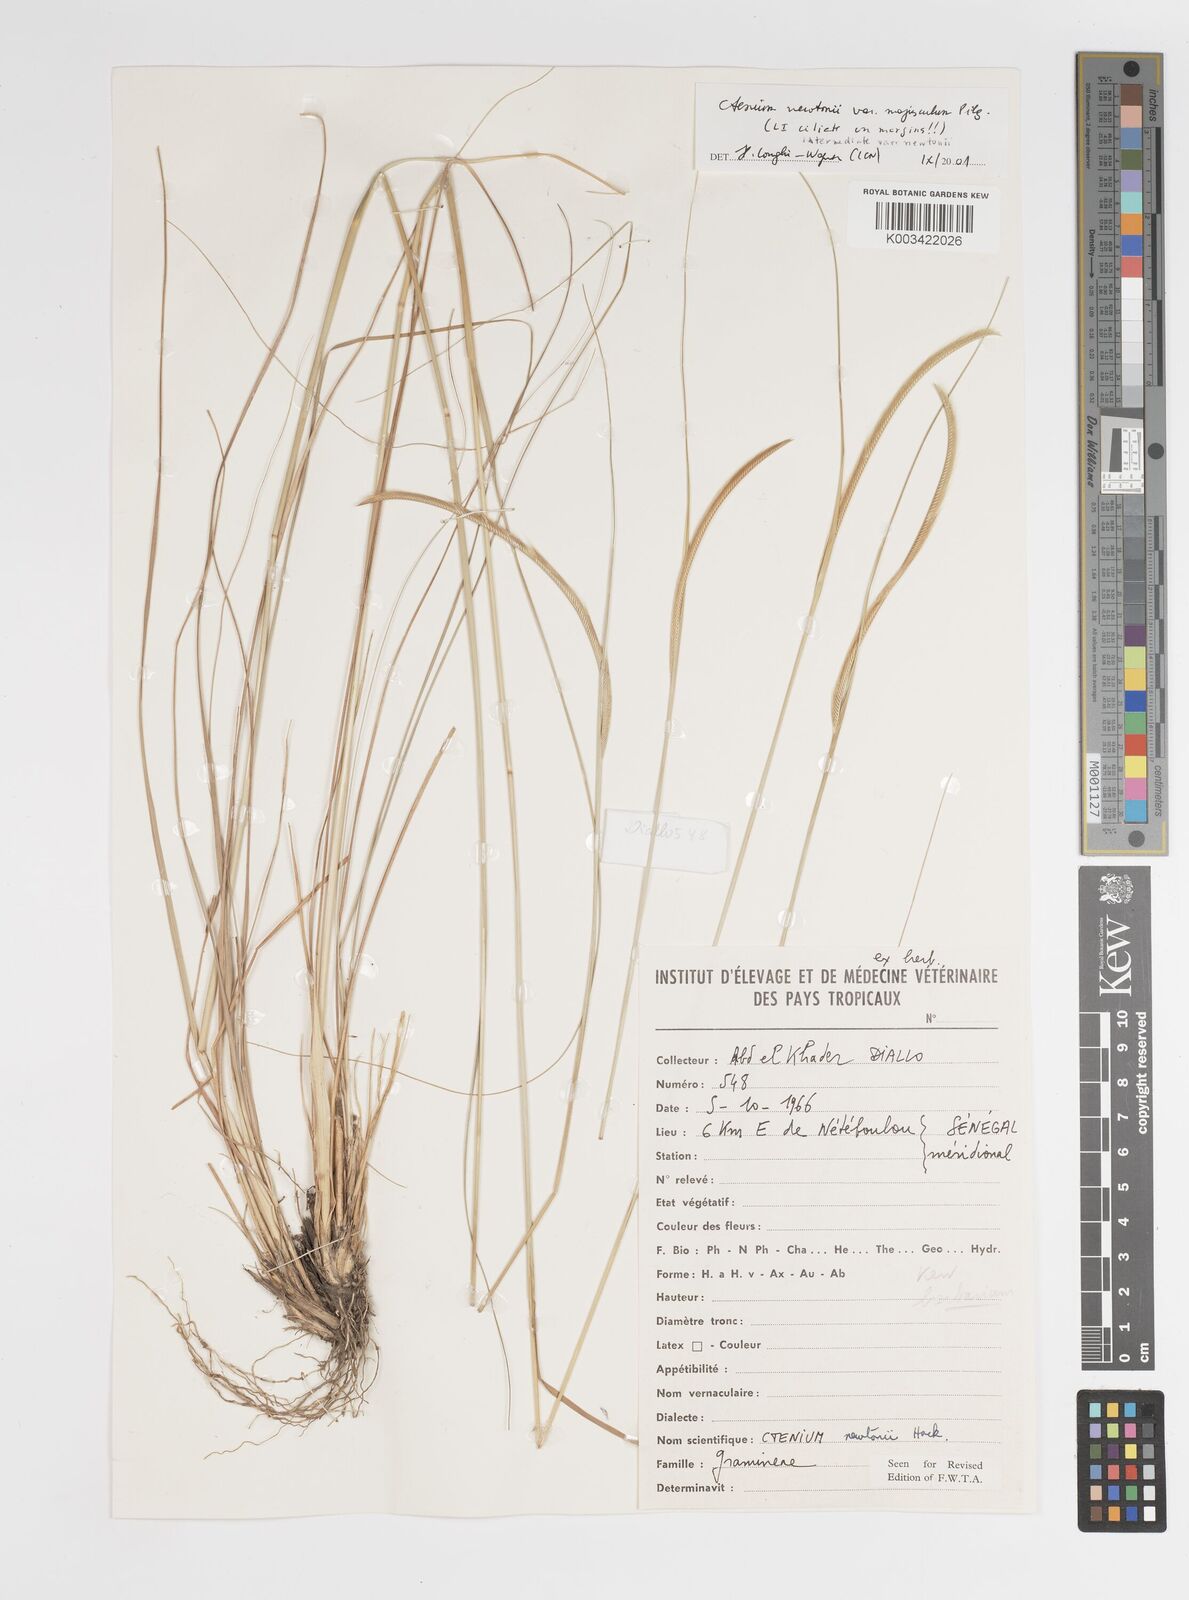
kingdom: Plantae
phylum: Tracheophyta
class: Liliopsida
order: Poales
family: Poaceae
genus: Ctenium
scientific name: Ctenium newtonii
